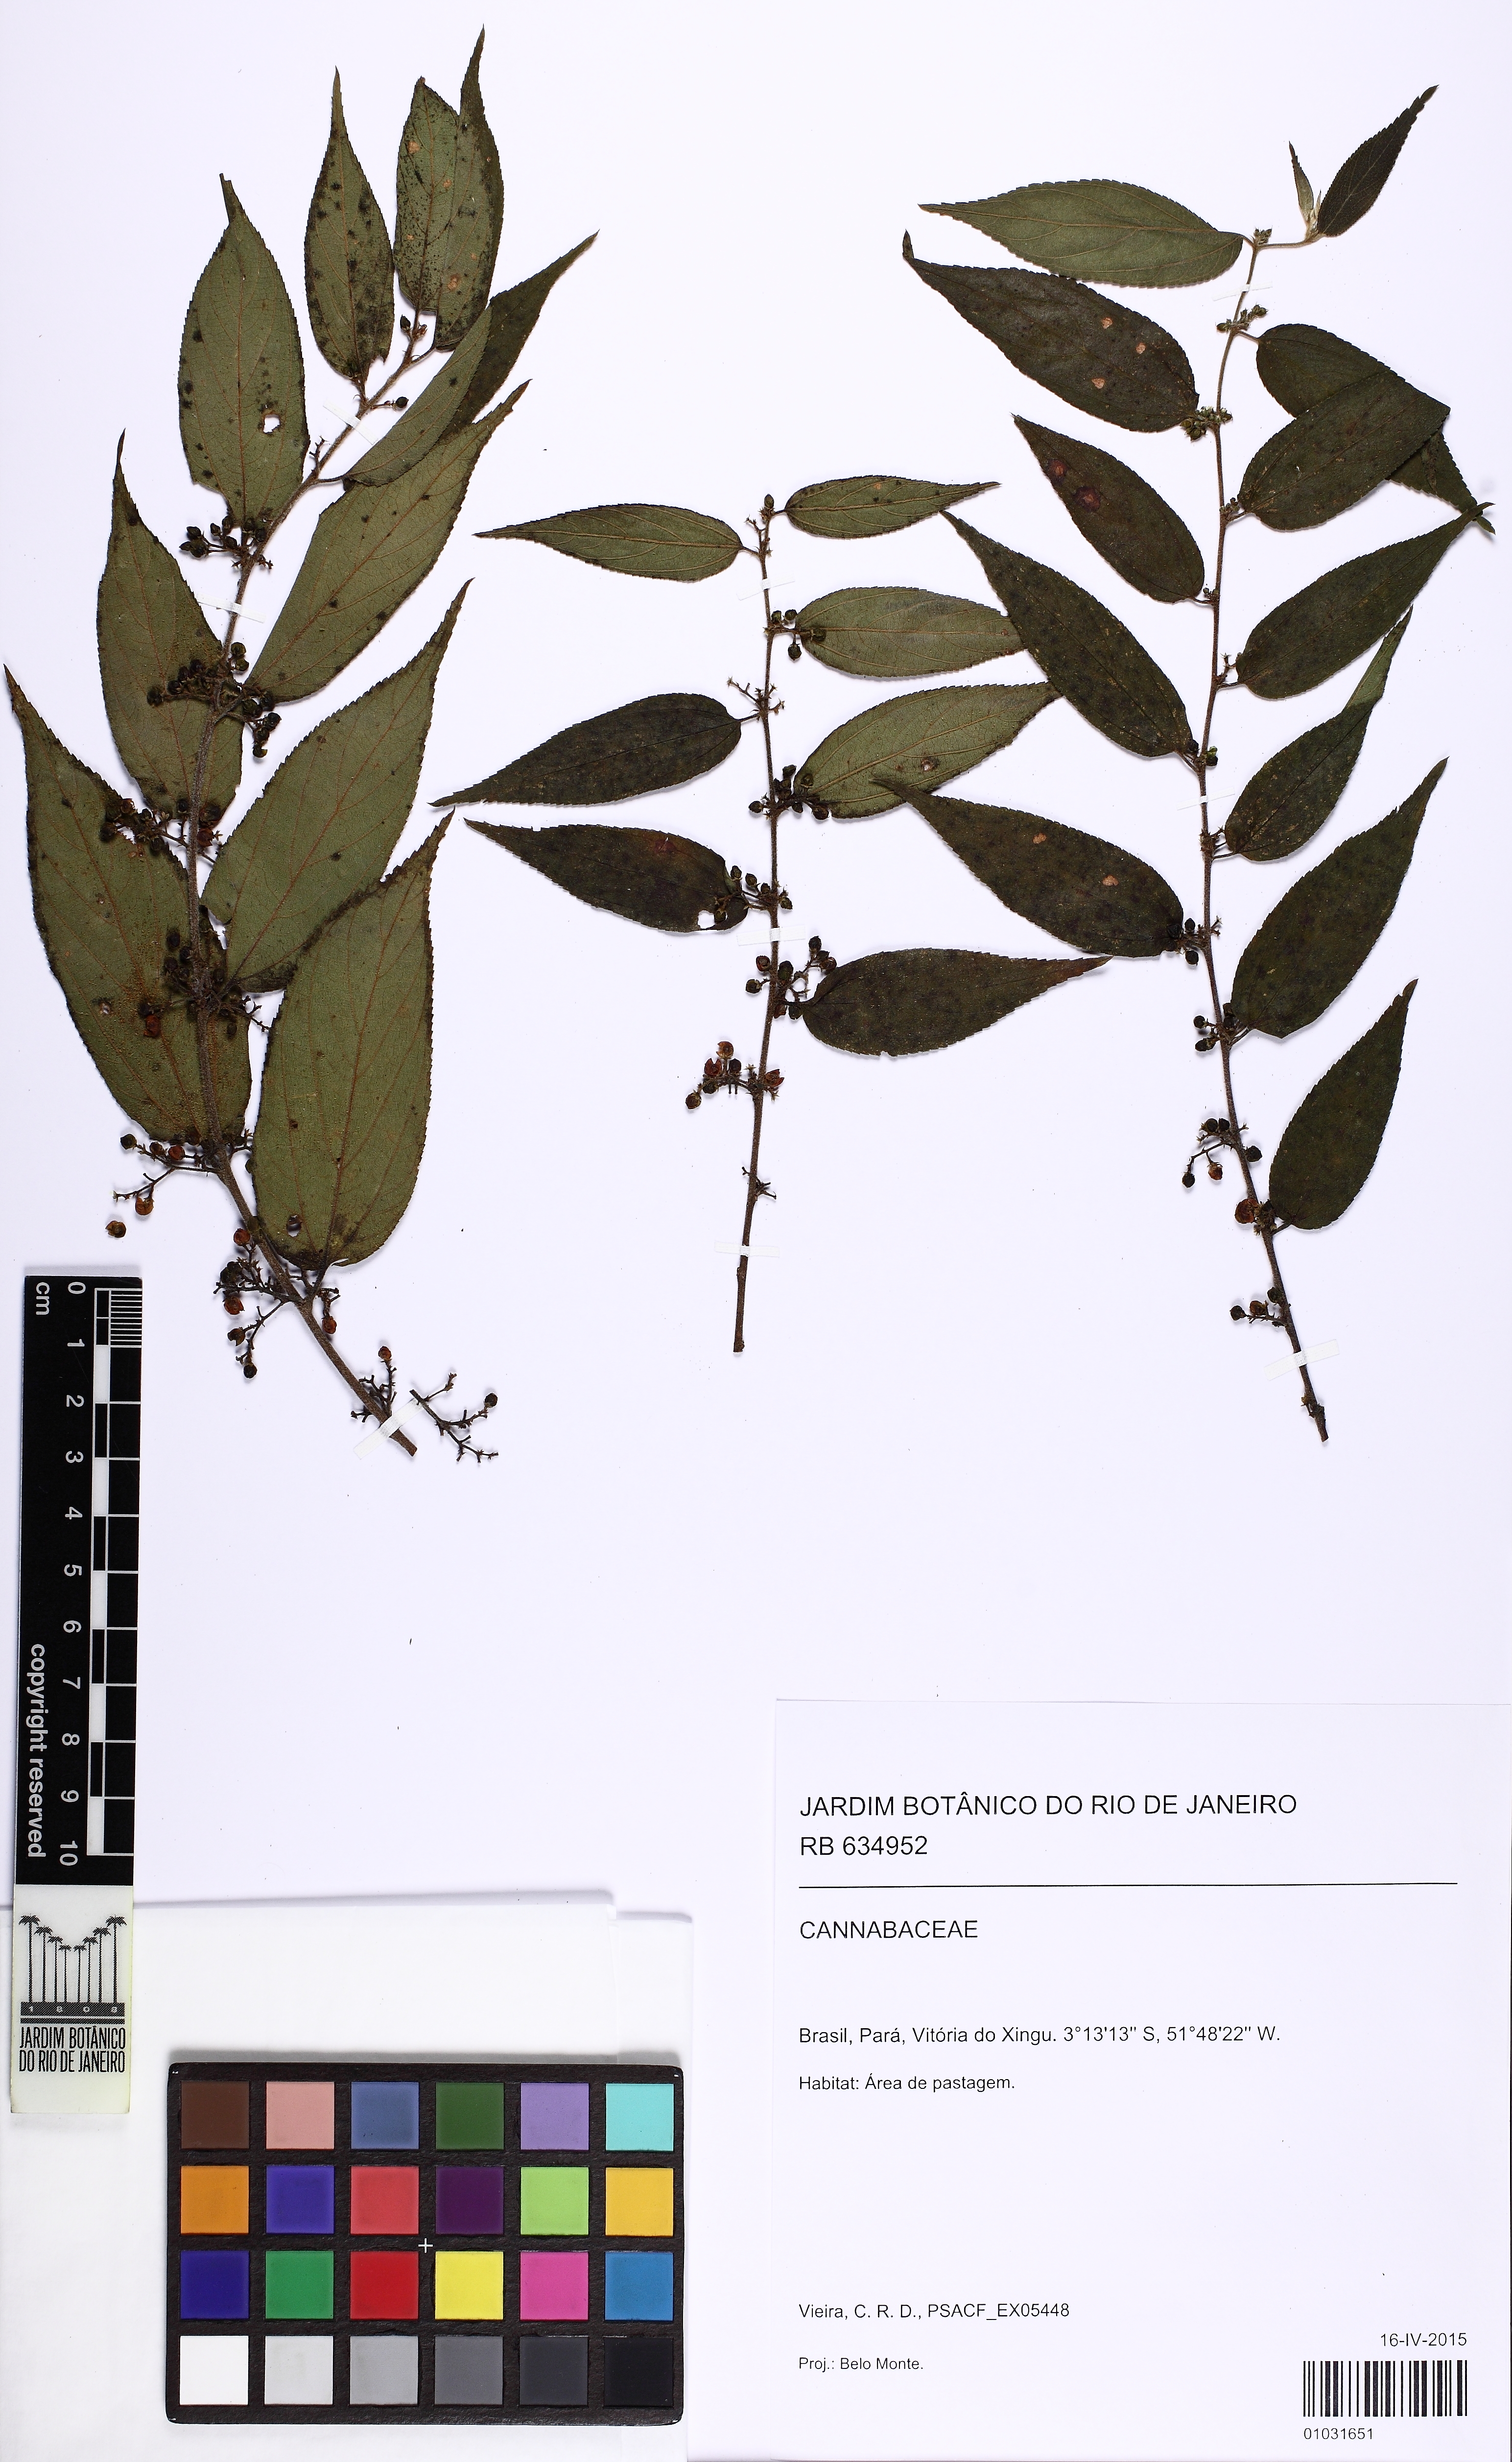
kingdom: Plantae
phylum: Tracheophyta
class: Magnoliopsida
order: Rosales
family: Cannabaceae
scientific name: Cannabaceae
